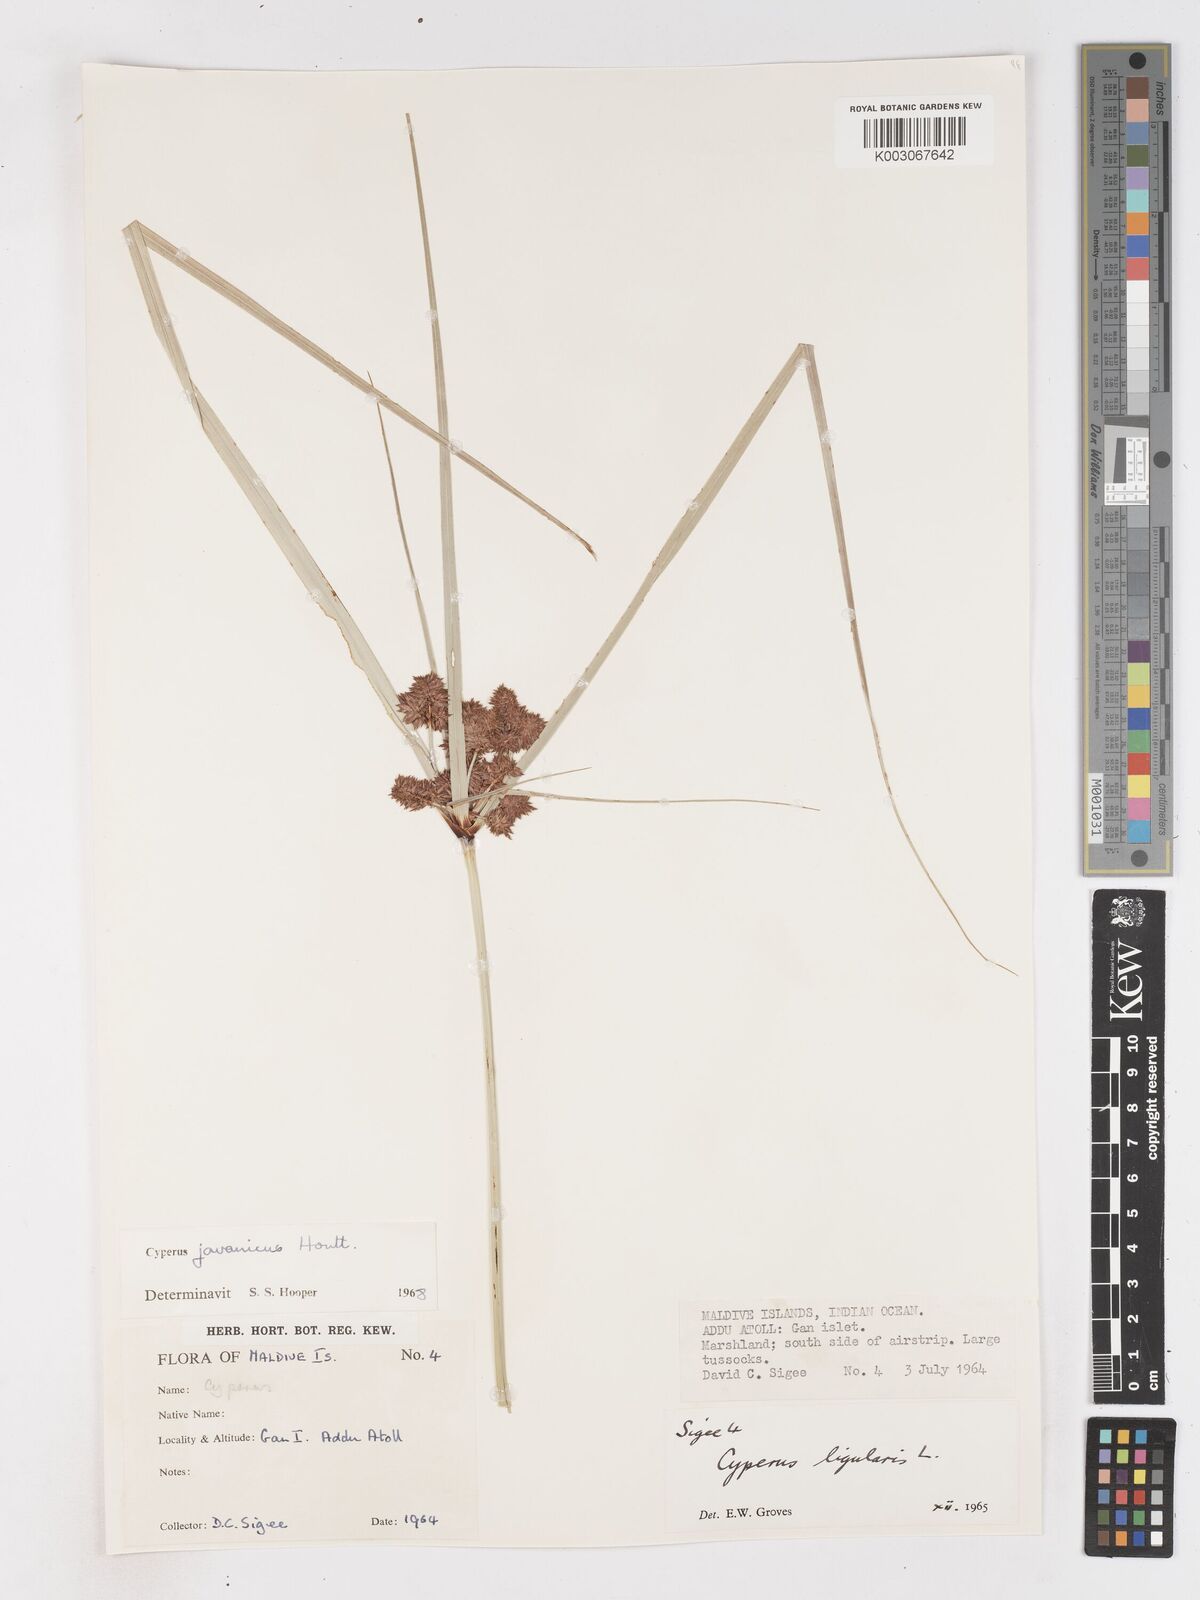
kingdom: Plantae
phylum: Tracheophyta
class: Liliopsida
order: Poales
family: Cyperaceae
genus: Cyperus
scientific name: Cyperus javanicus
